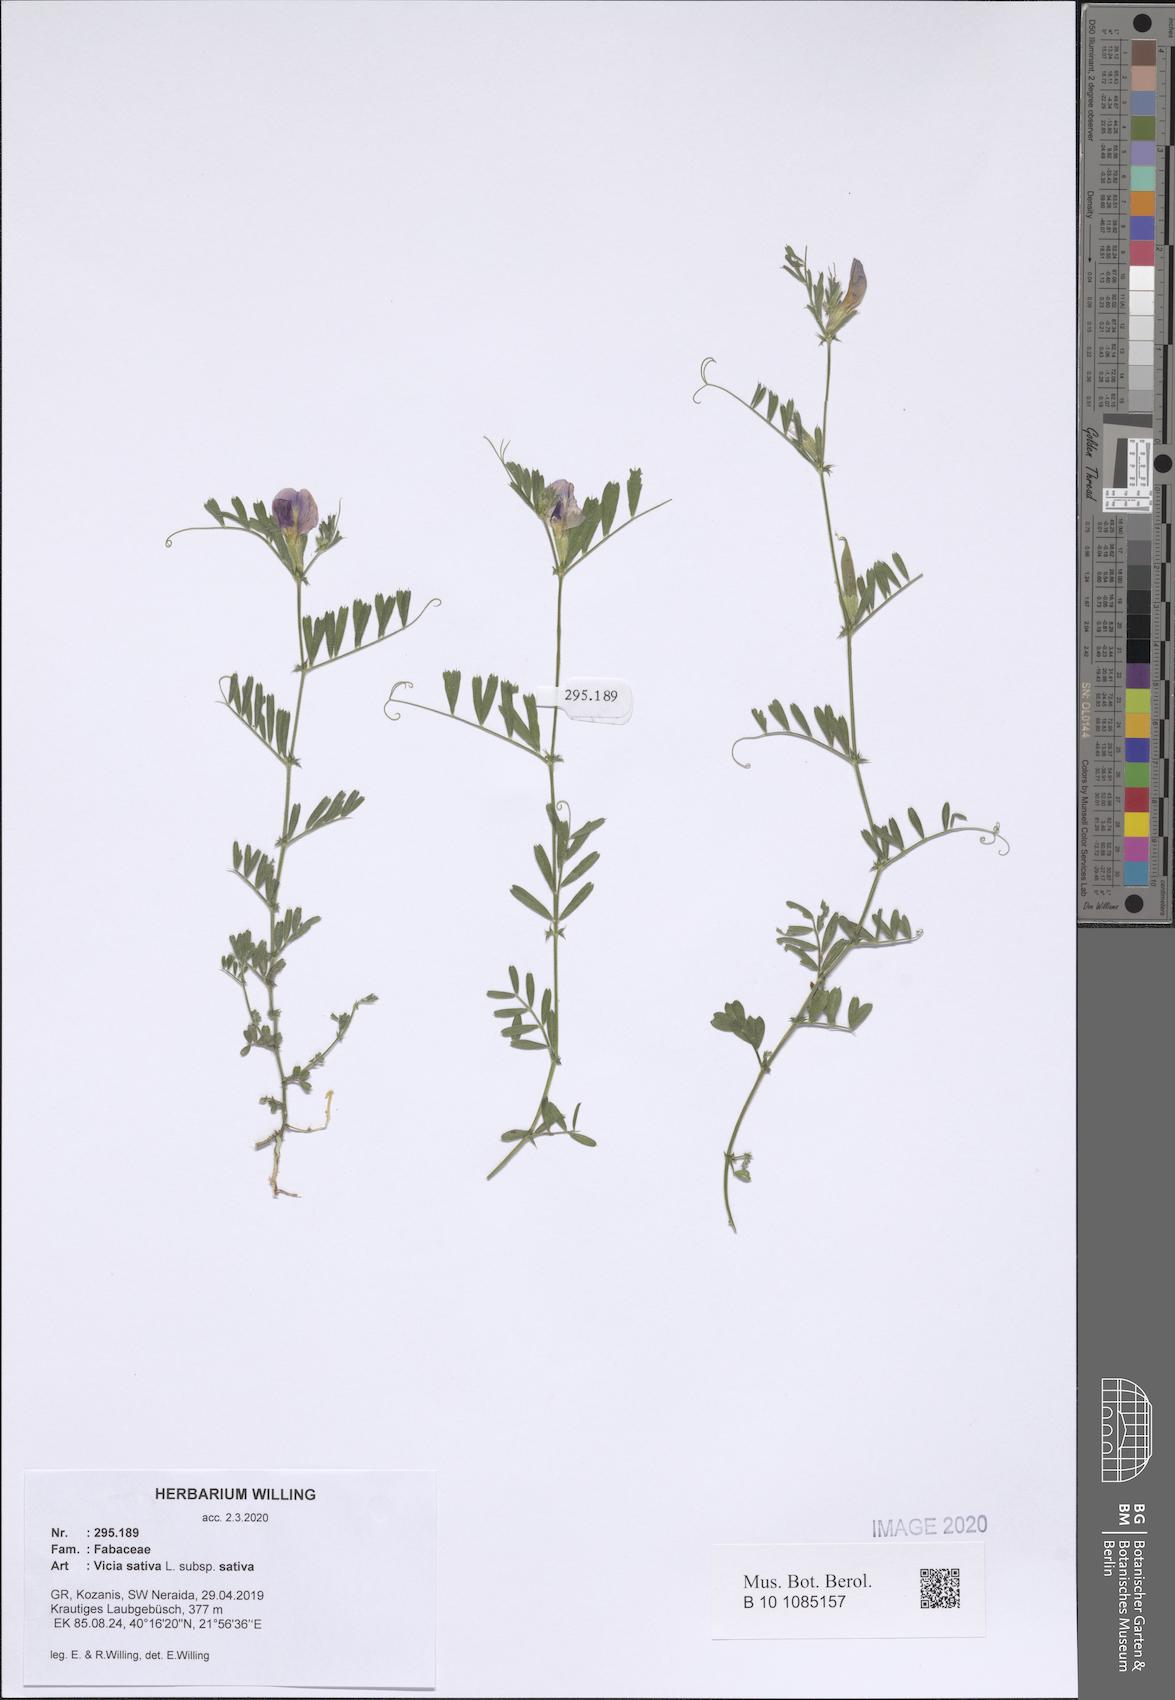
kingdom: Plantae
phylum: Tracheophyta
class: Magnoliopsida
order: Fabales
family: Fabaceae
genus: Vicia
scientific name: Vicia sativa
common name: Garden vetch
